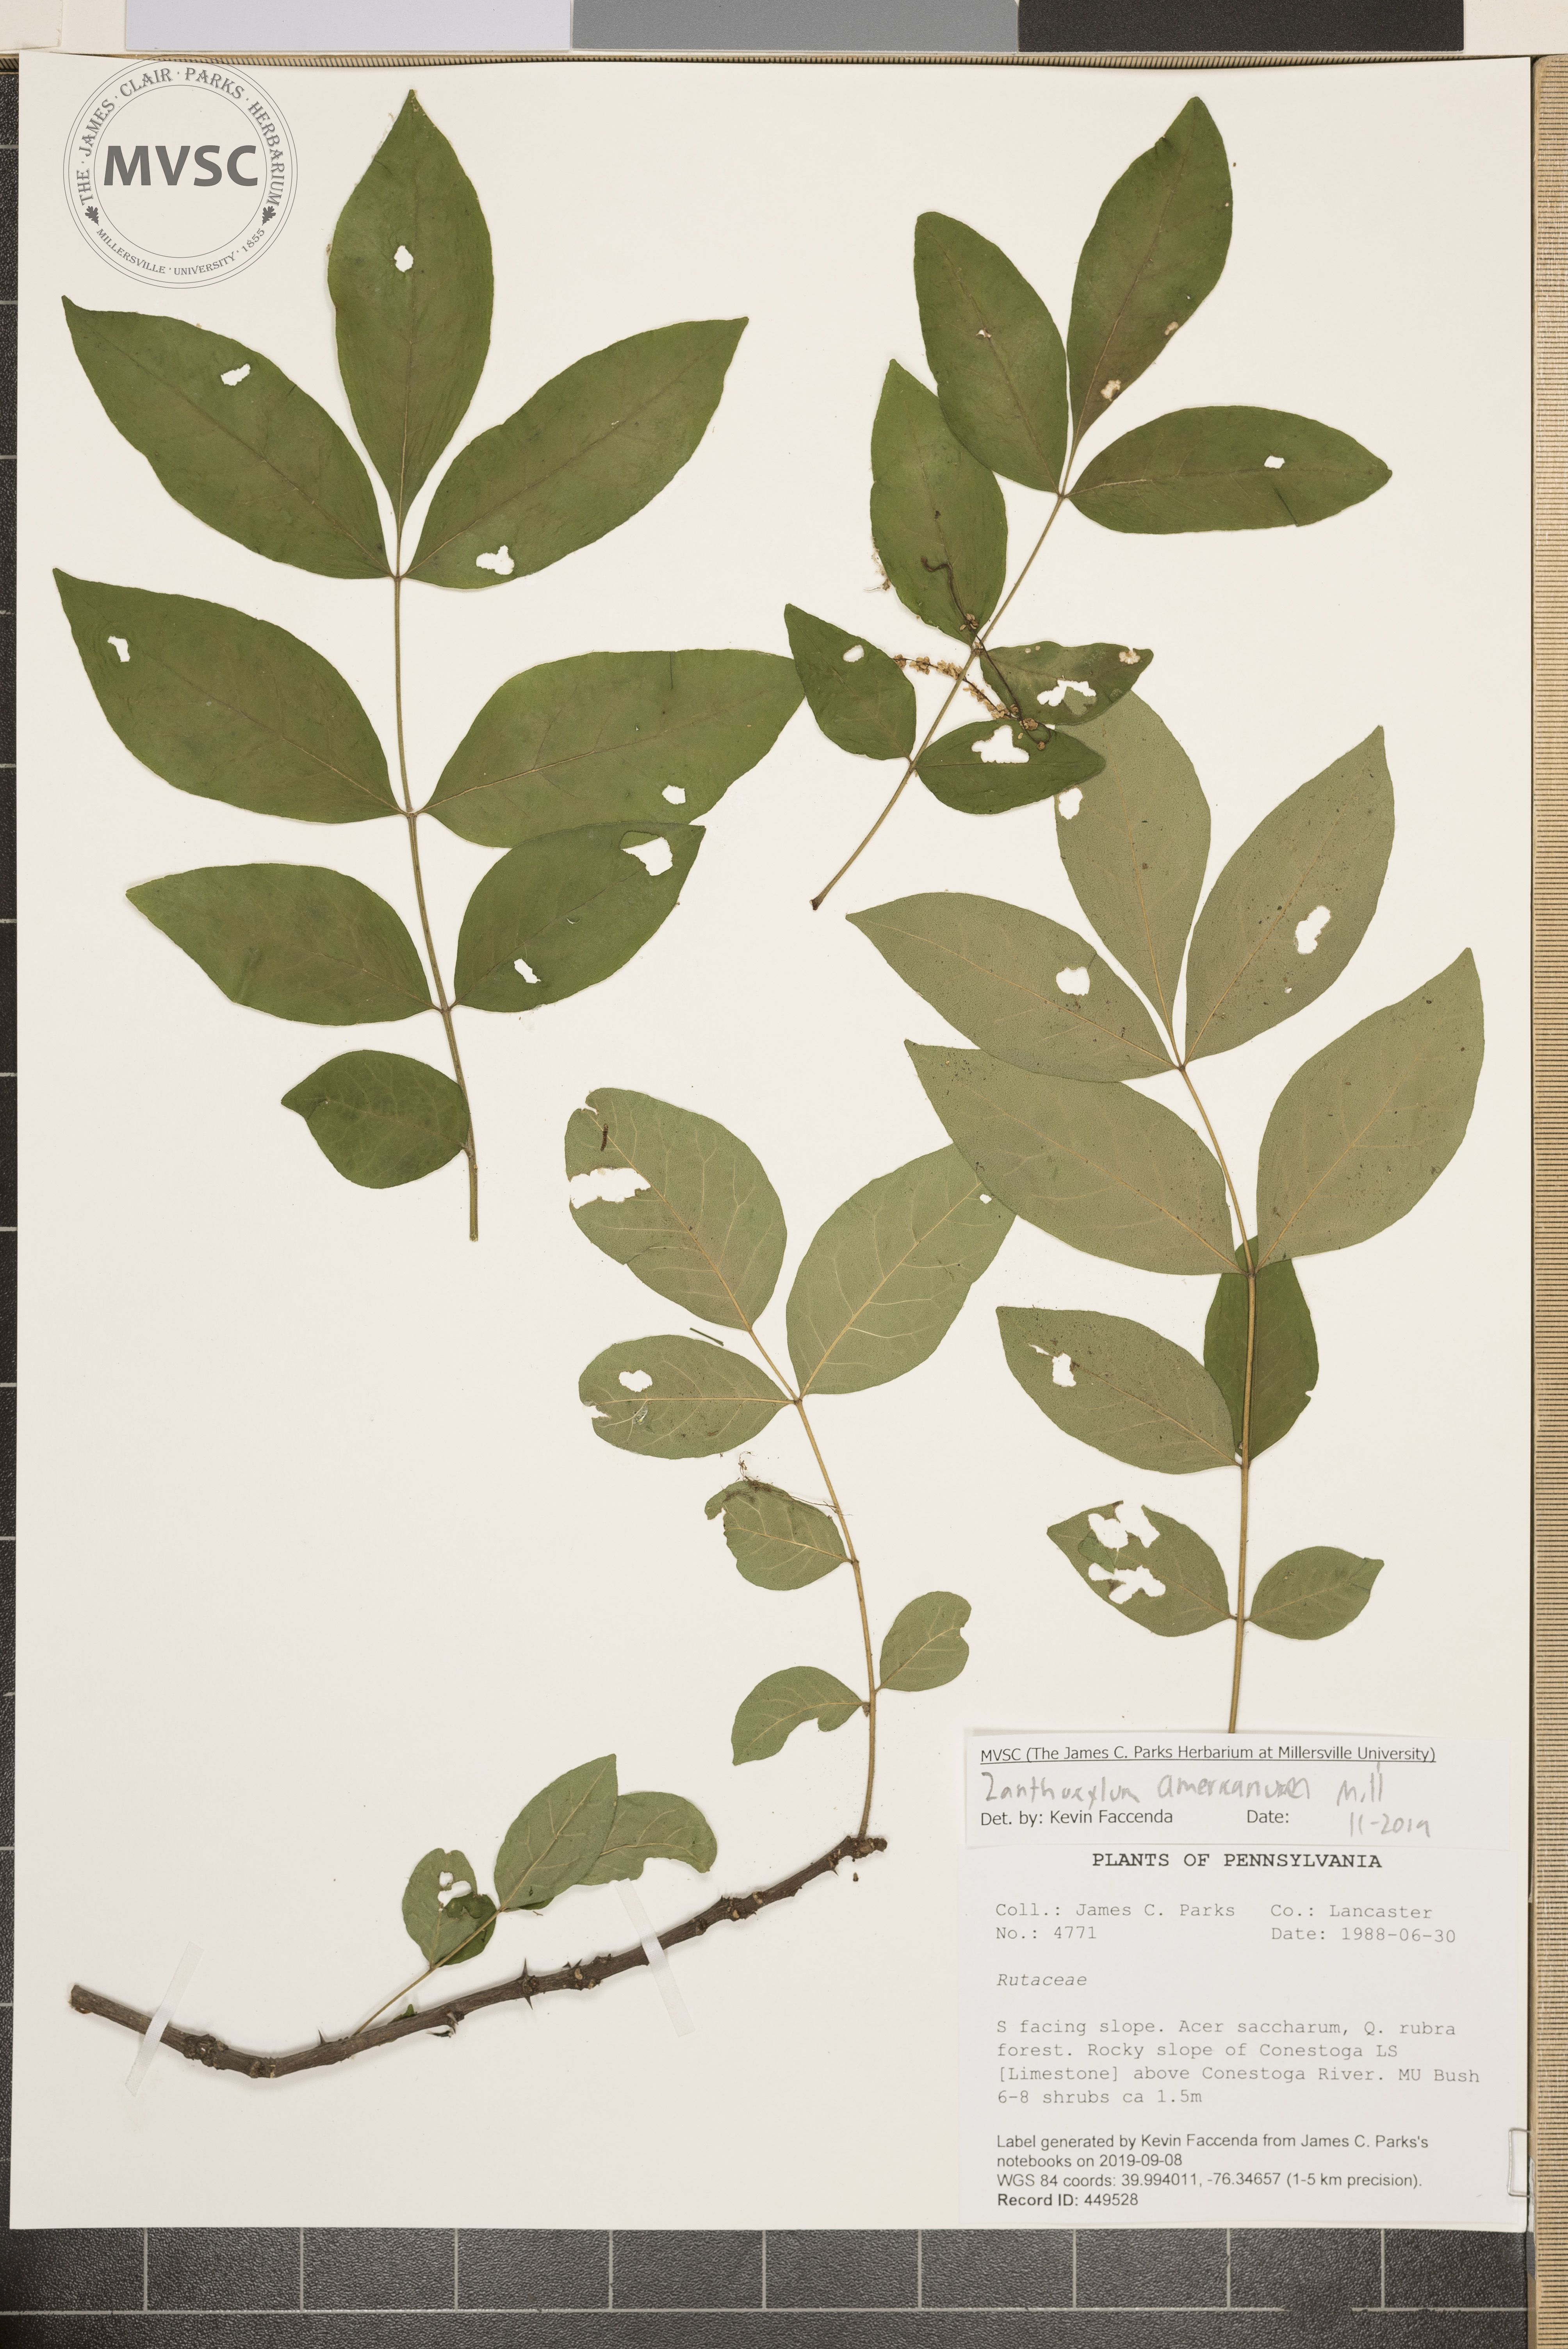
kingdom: Plantae
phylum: Tracheophyta
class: Magnoliopsida
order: Sapindales
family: Rutaceae
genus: Zanthoxylum
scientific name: Zanthoxylum americanum
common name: Northern prickly-ash
